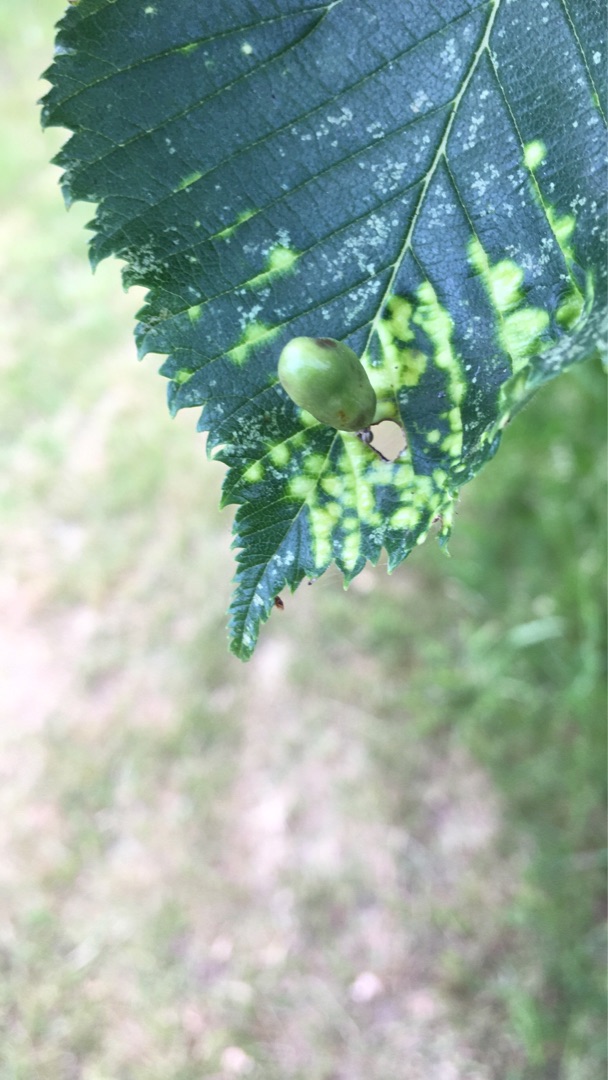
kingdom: Animalia
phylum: Arthropoda
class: Insecta
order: Hemiptera
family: Aphididae
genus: Tetraneura
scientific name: Tetraneura ulmi
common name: Elmegallelus
